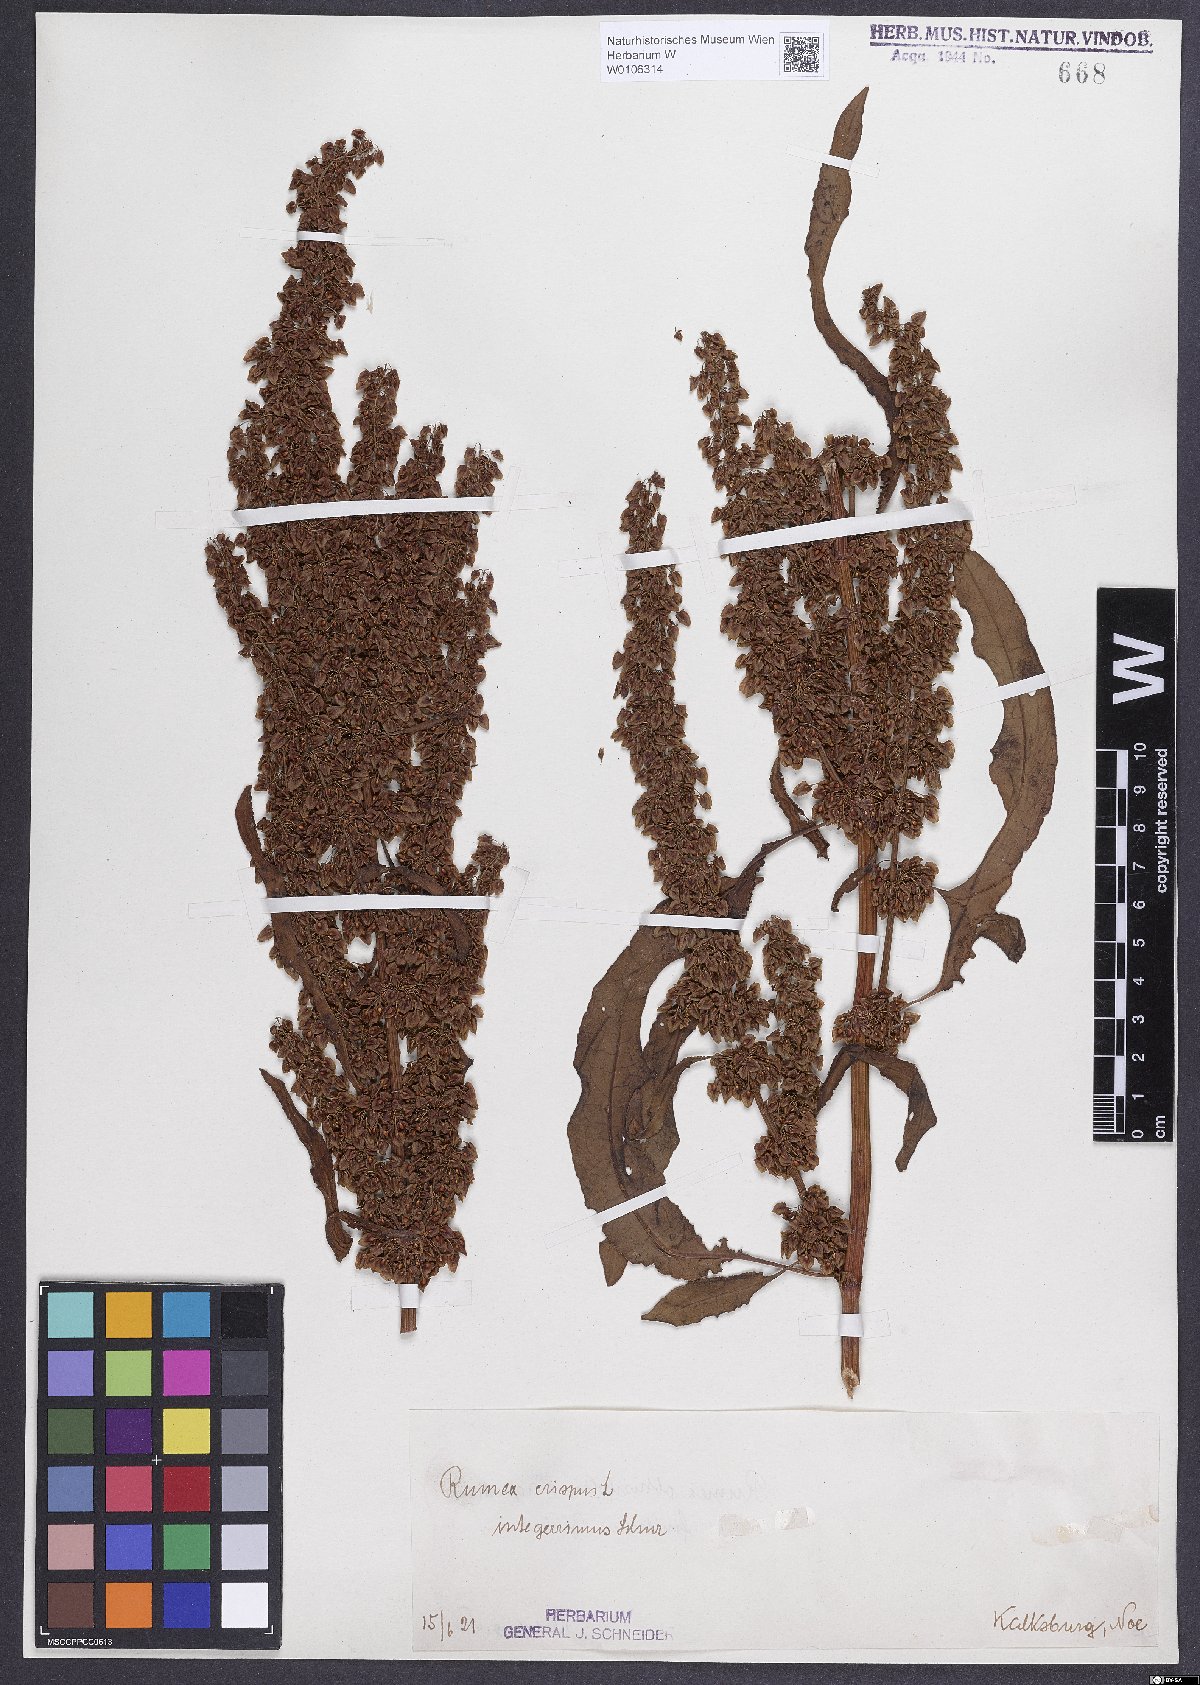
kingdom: Plantae
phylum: Tracheophyta
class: Magnoliopsida
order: Caryophyllales
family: Polygonaceae
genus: Rumex
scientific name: Rumex crispus
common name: Curled dock
